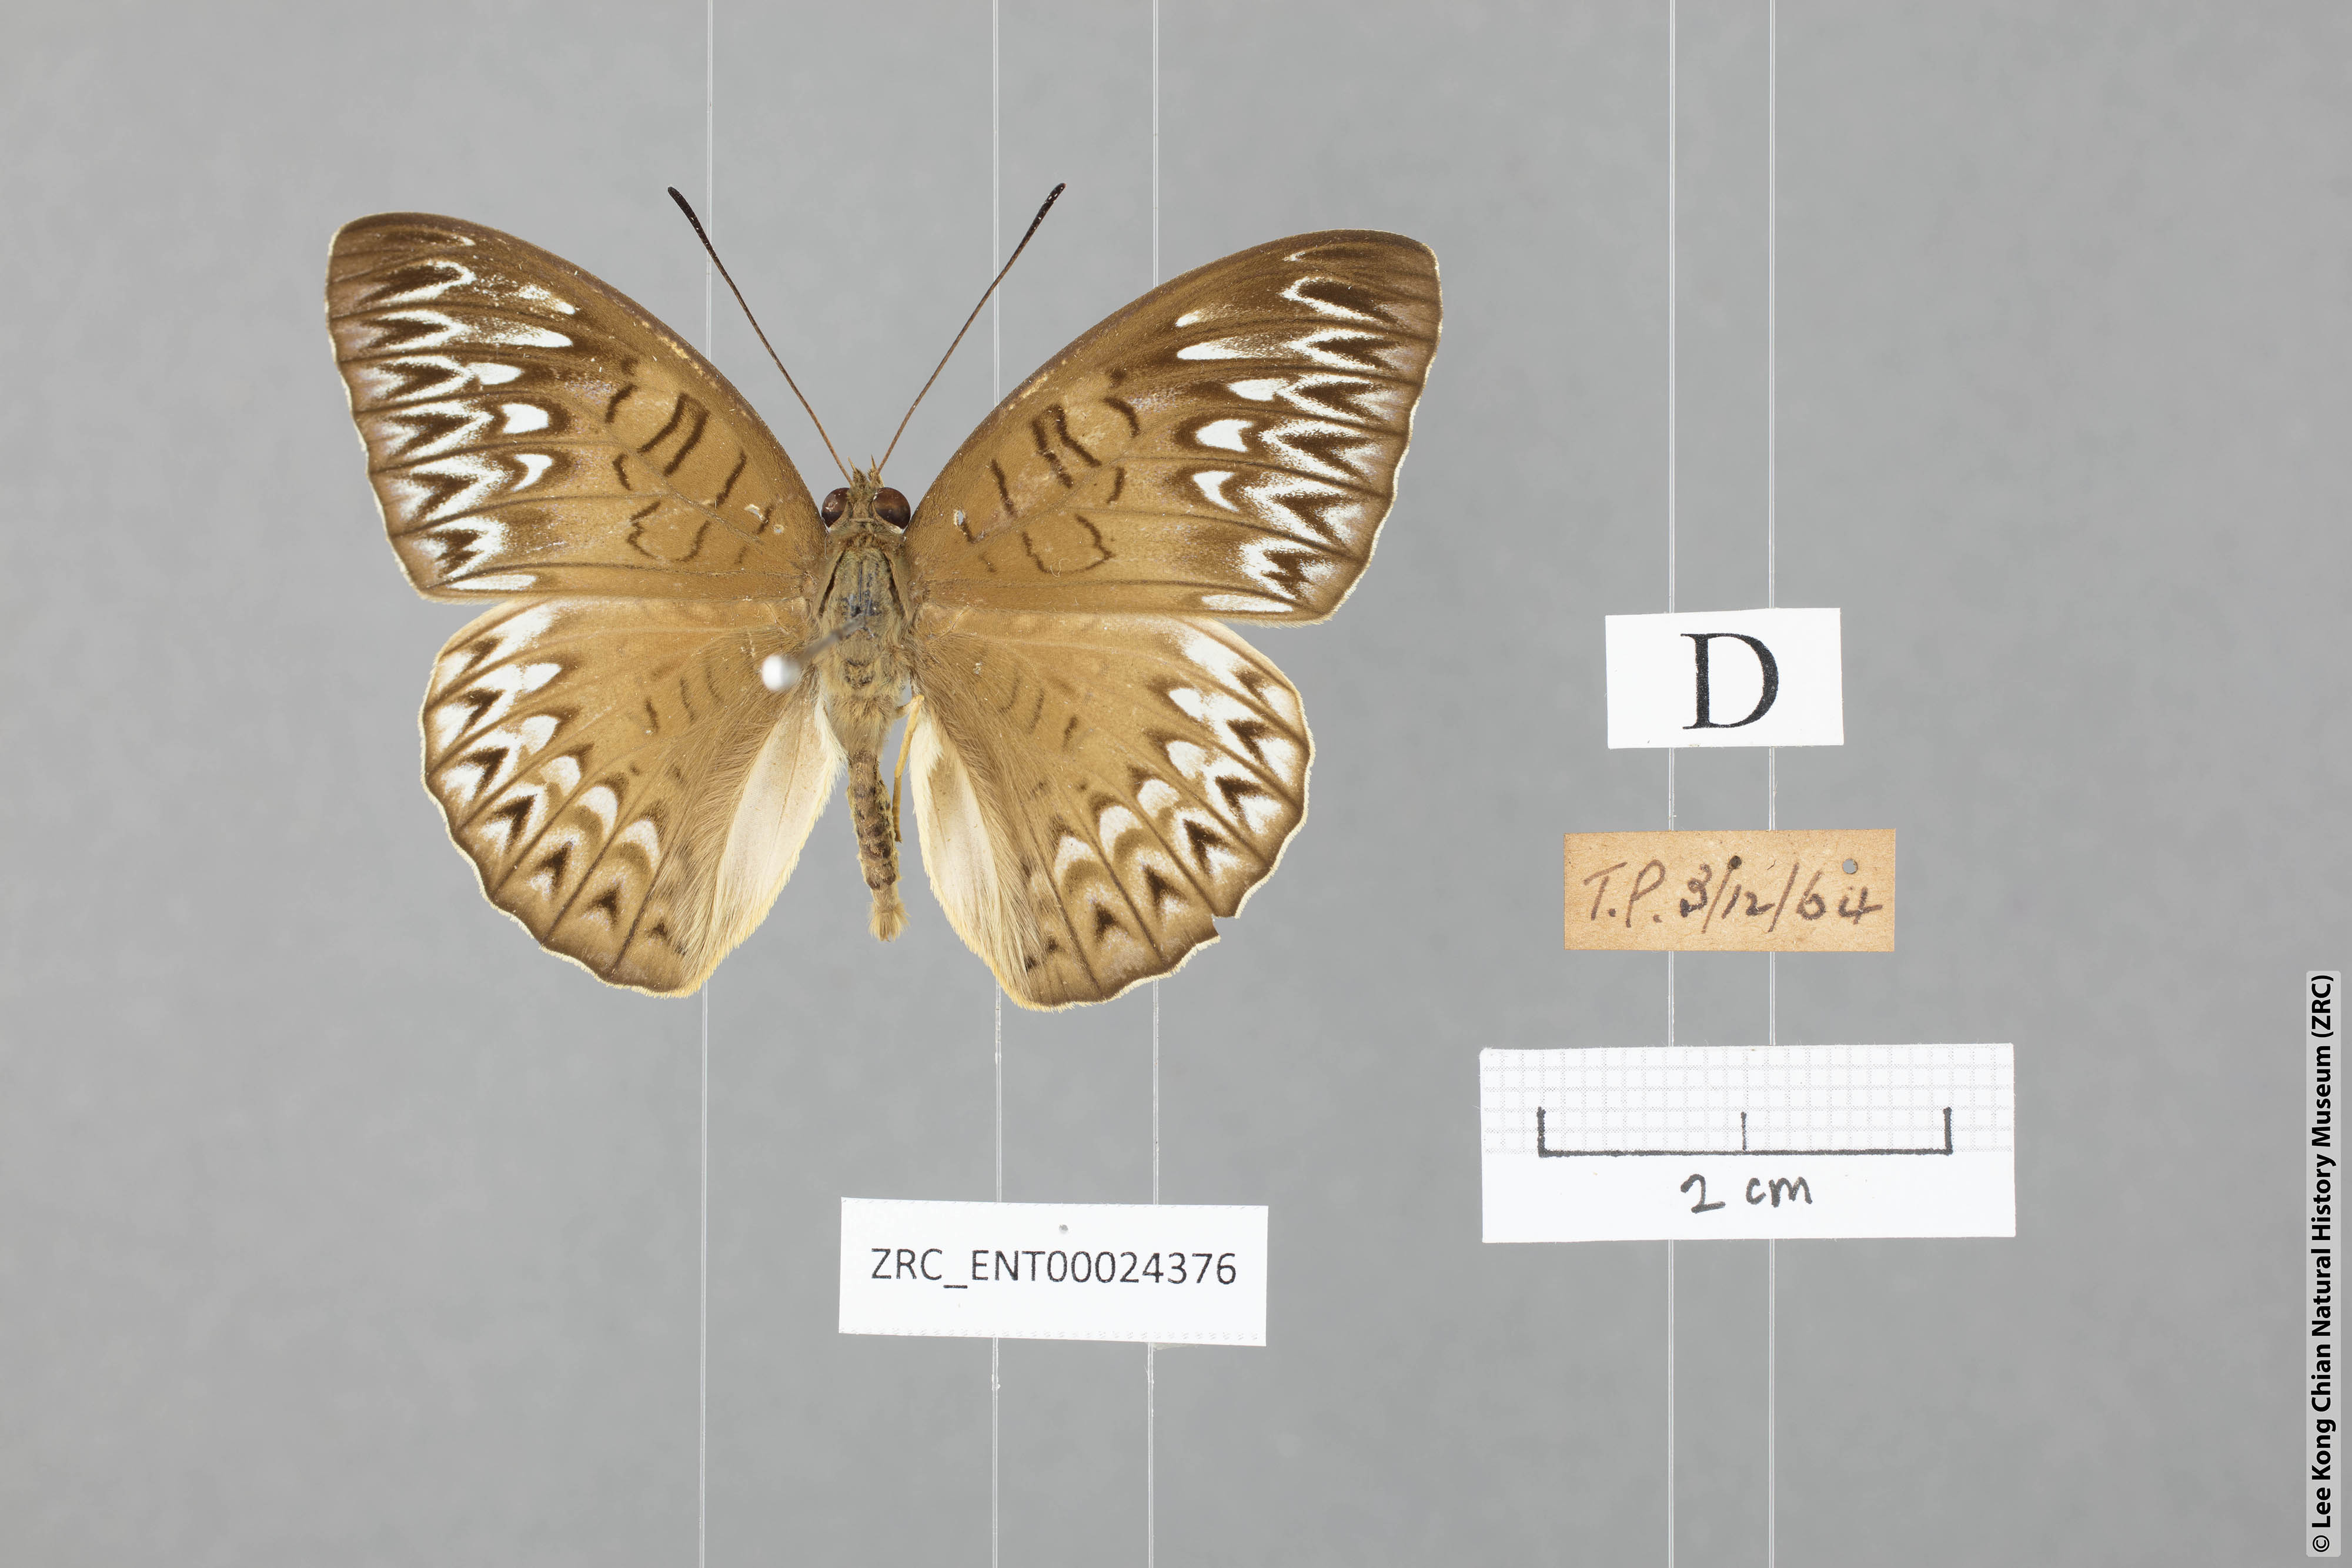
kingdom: Animalia
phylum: Arthropoda
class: Insecta
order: Lepidoptera
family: Nymphalidae
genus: Tanaecia
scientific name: Tanaecia aruna
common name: Short-banded viscount
